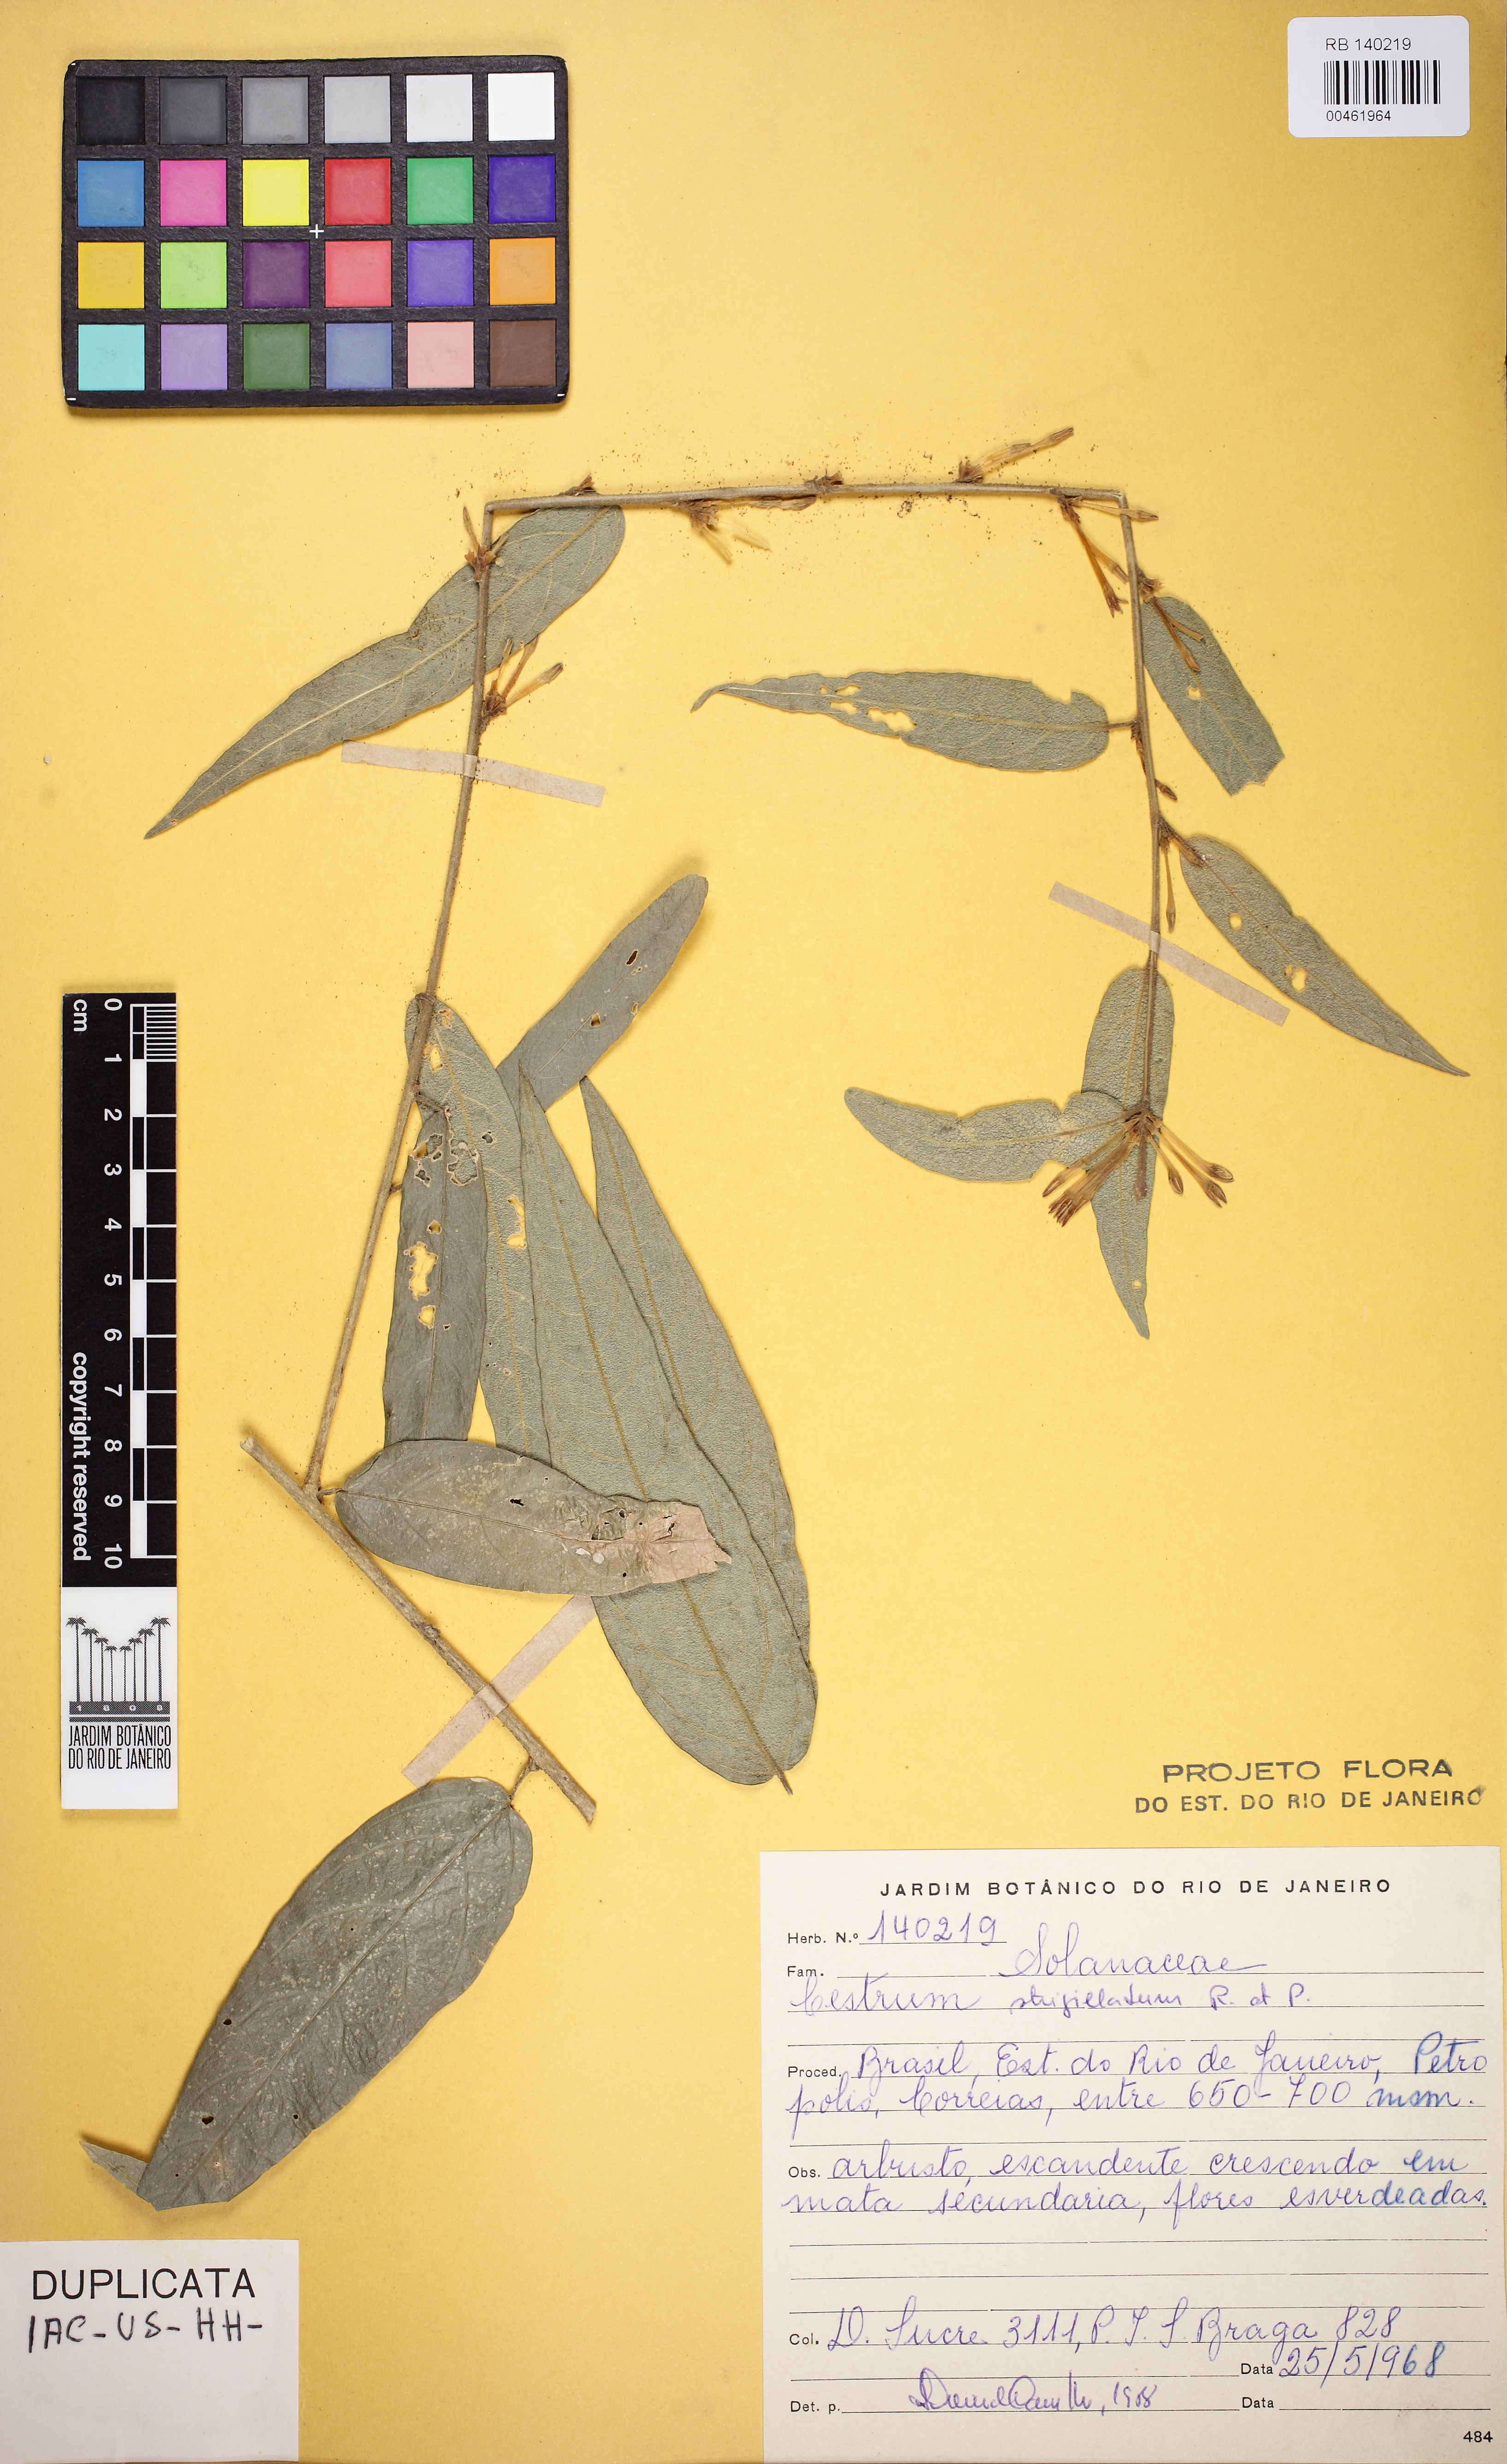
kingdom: Plantae
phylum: Tracheophyta
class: Magnoliopsida
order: Solanales
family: Solanaceae
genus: Cestrum
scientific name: Cestrum strigillatum
